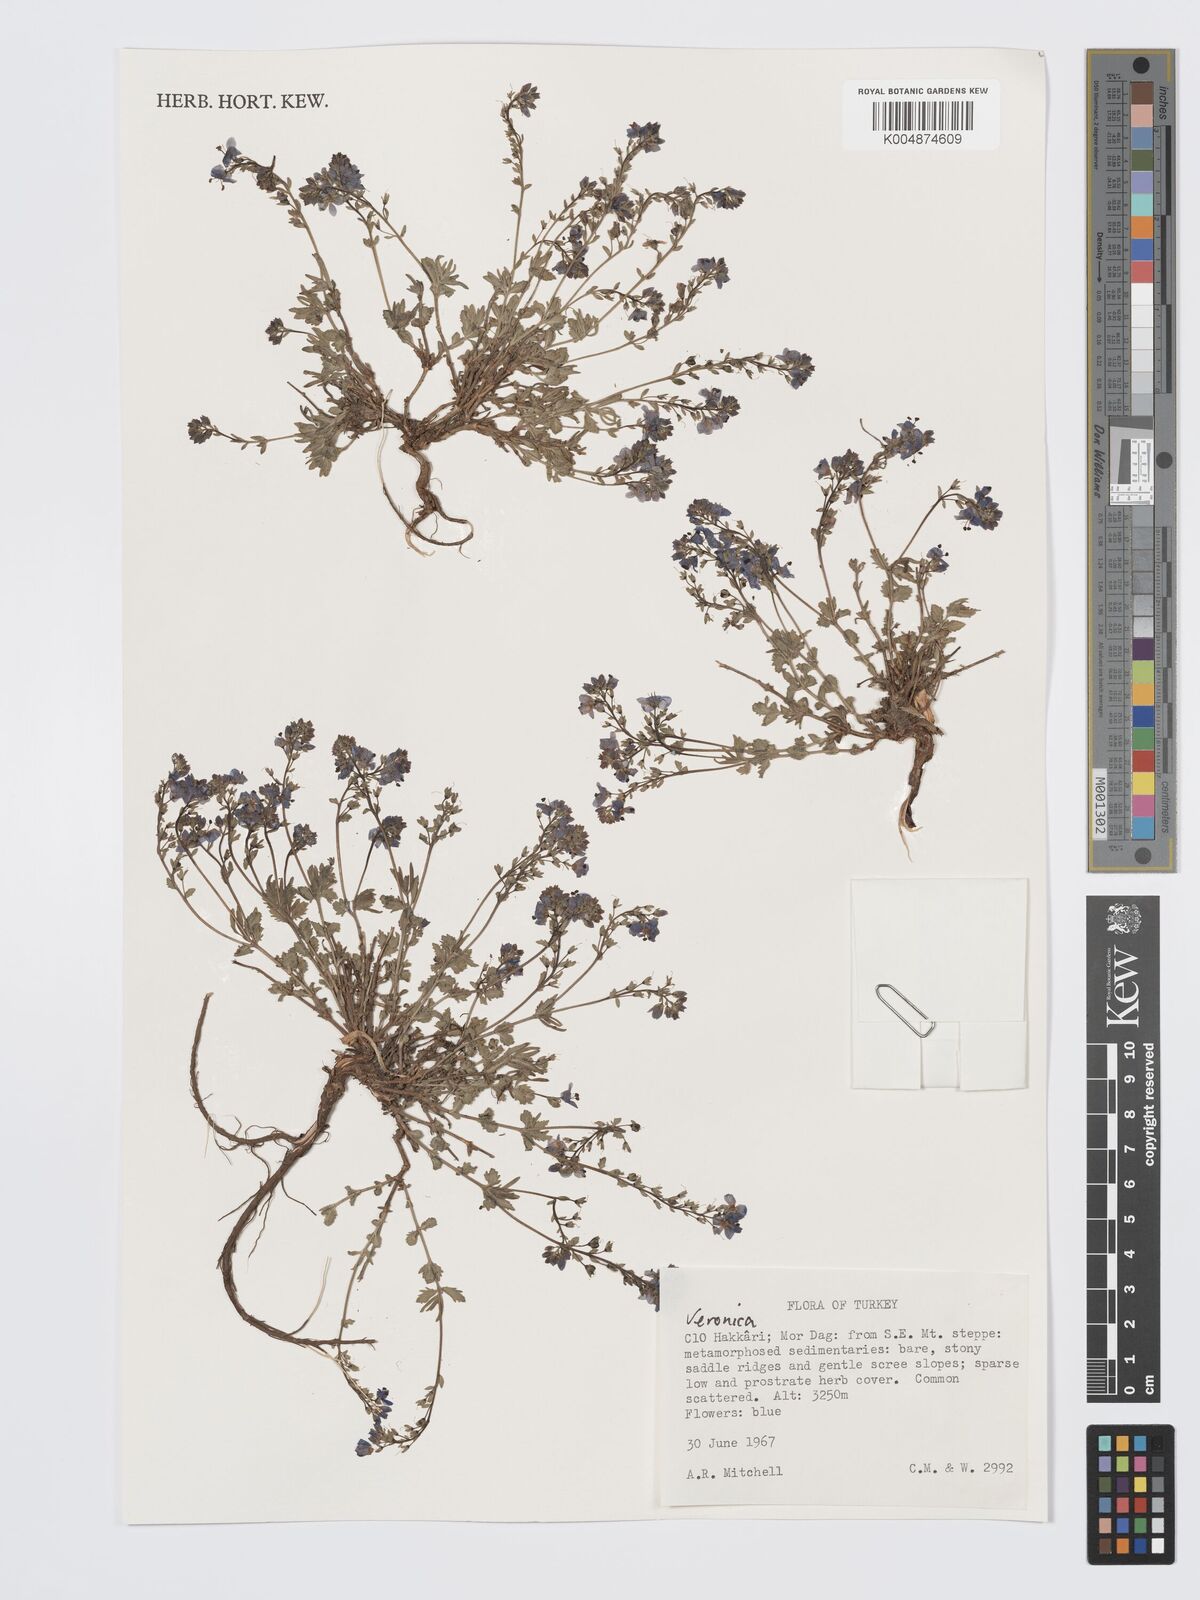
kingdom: Plantae
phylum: Tracheophyta
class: Magnoliopsida
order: Lamiales
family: Plantaginaceae
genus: Veronica
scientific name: Veronica
